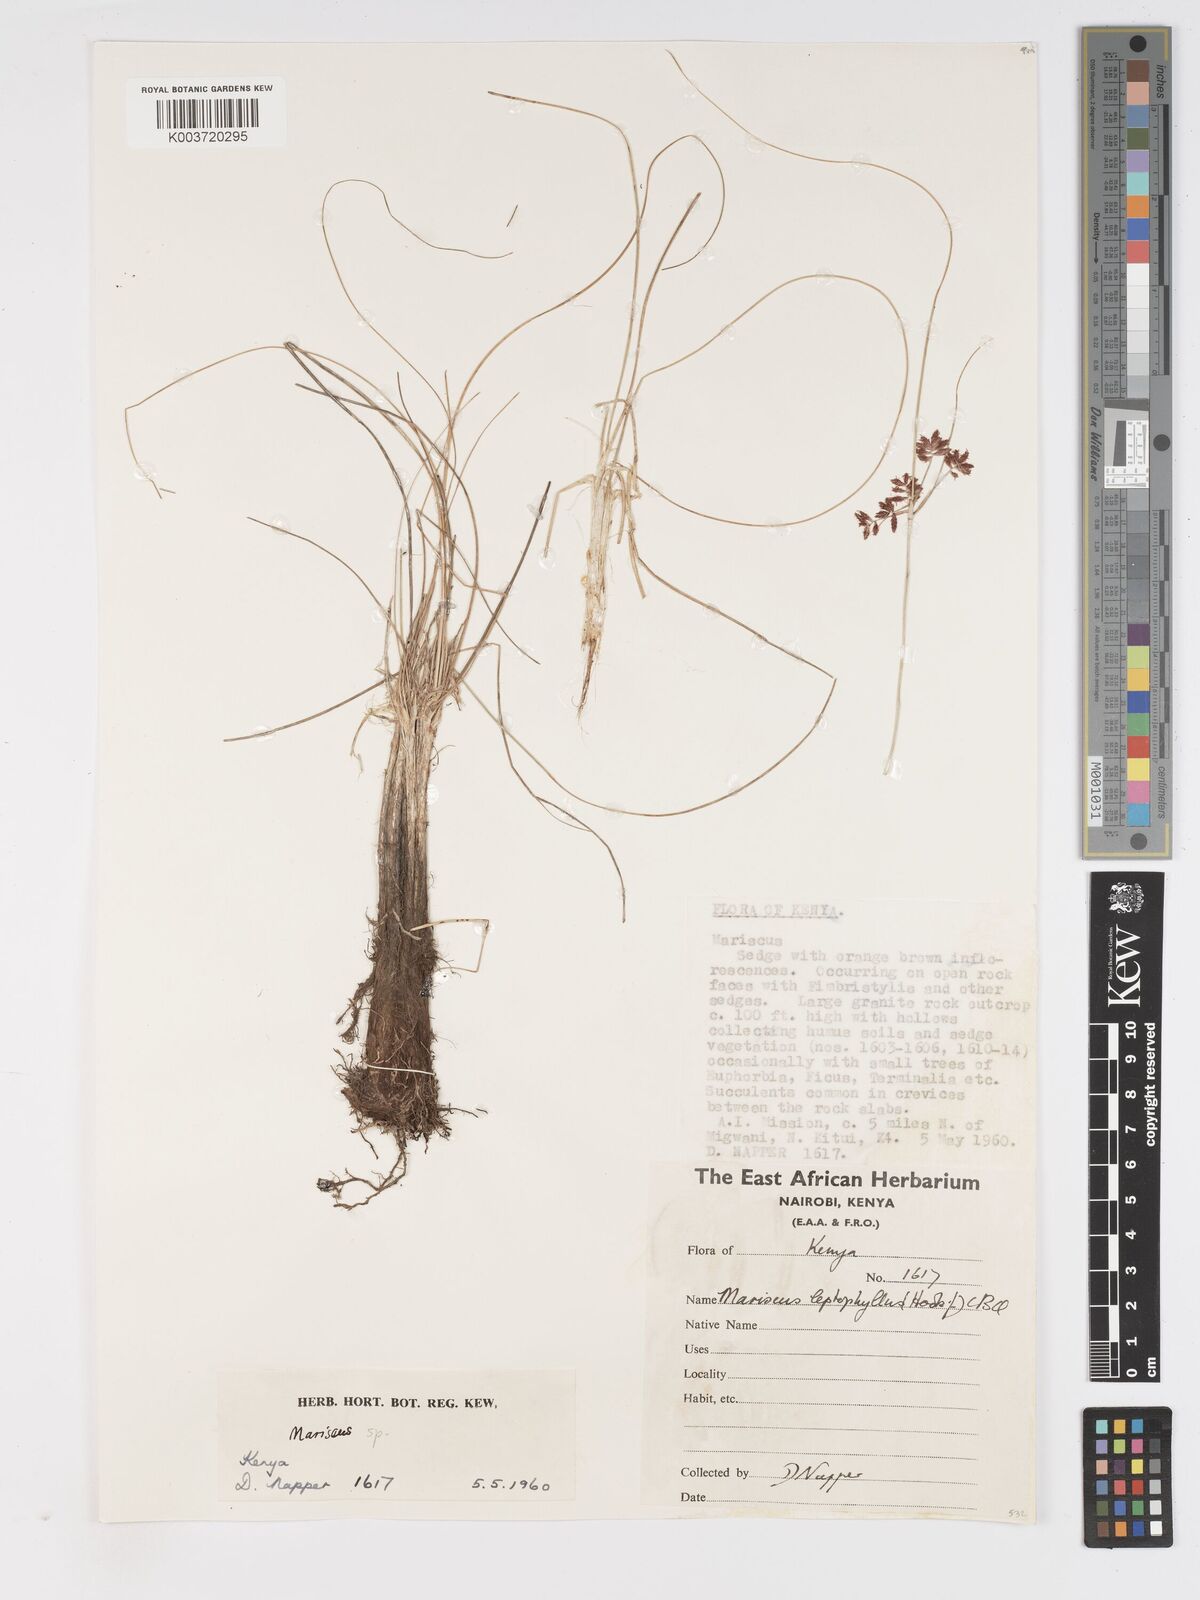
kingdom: Plantae
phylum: Tracheophyta
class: Liliopsida
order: Poales
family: Cyperaceae
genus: Cyperus
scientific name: Cyperus
